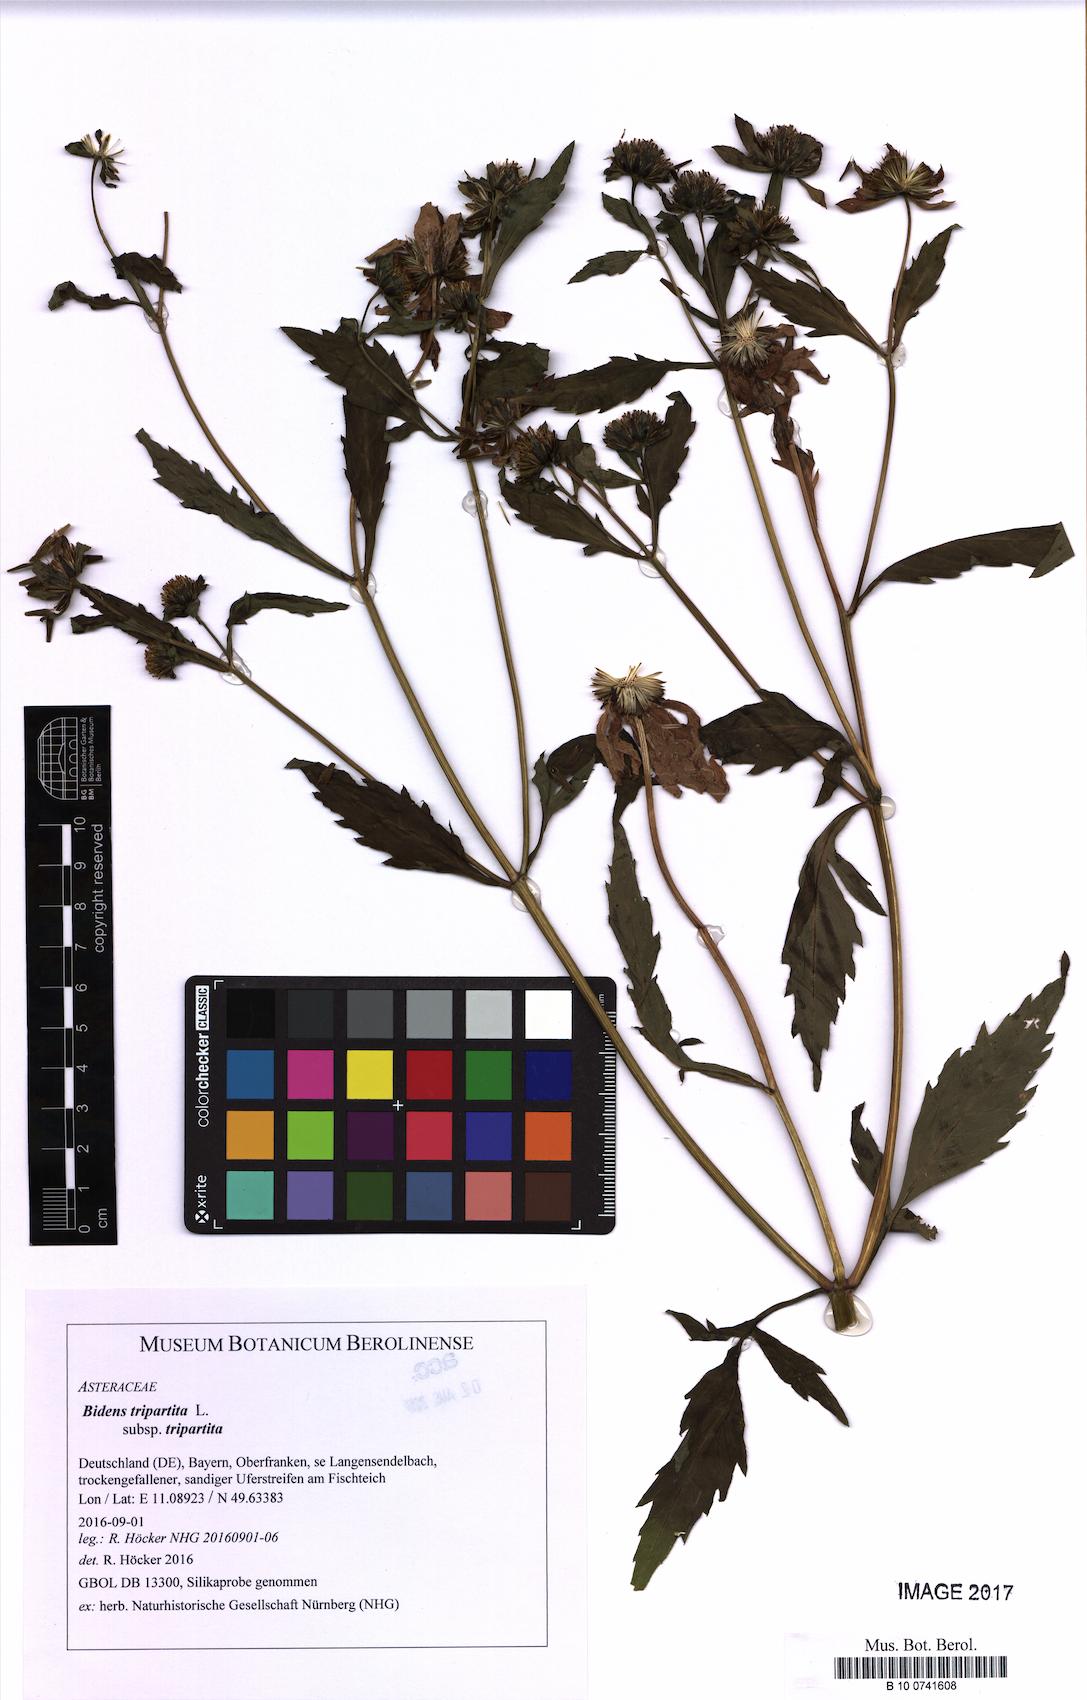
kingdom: Plantae
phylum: Tracheophyta
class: Magnoliopsida
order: Asterales
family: Asteraceae
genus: Bidens
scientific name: Bidens tripartita
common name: Trifid bur-marigold
